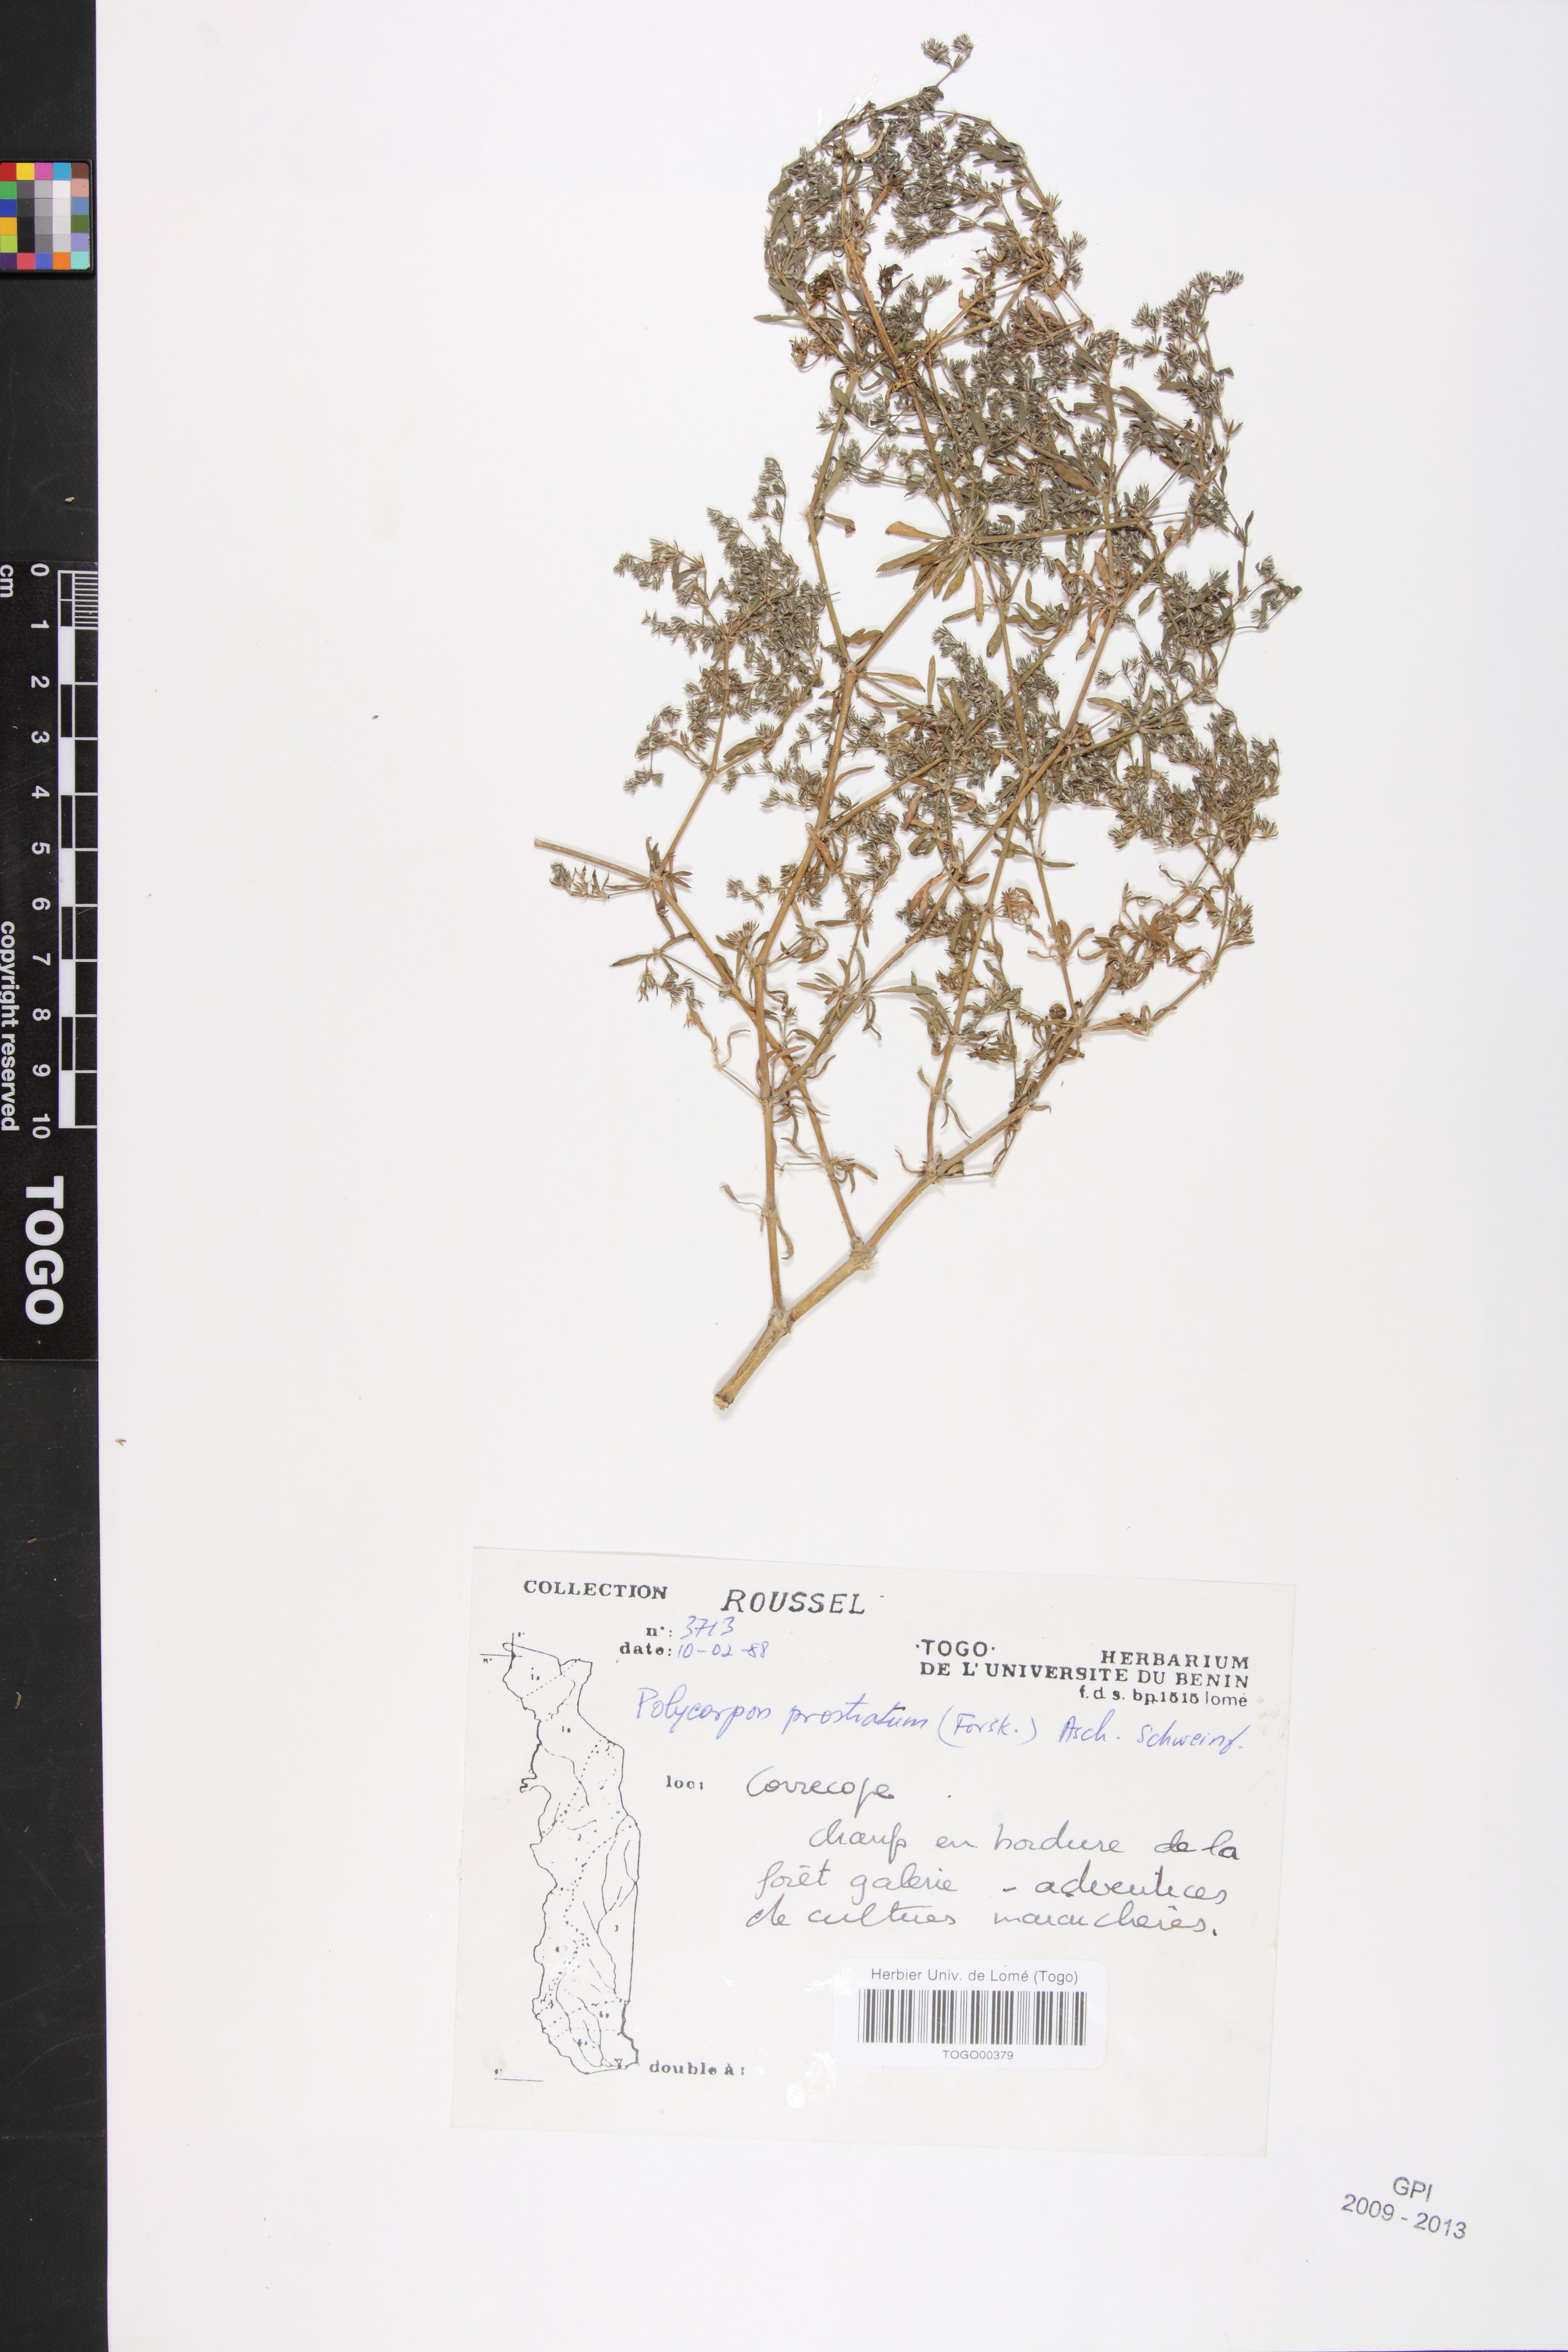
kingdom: Plantae
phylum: Tracheophyta
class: Magnoliopsida
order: Caryophyllales
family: Caryophyllaceae
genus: Polycarpon
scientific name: Polycarpon prostratum
